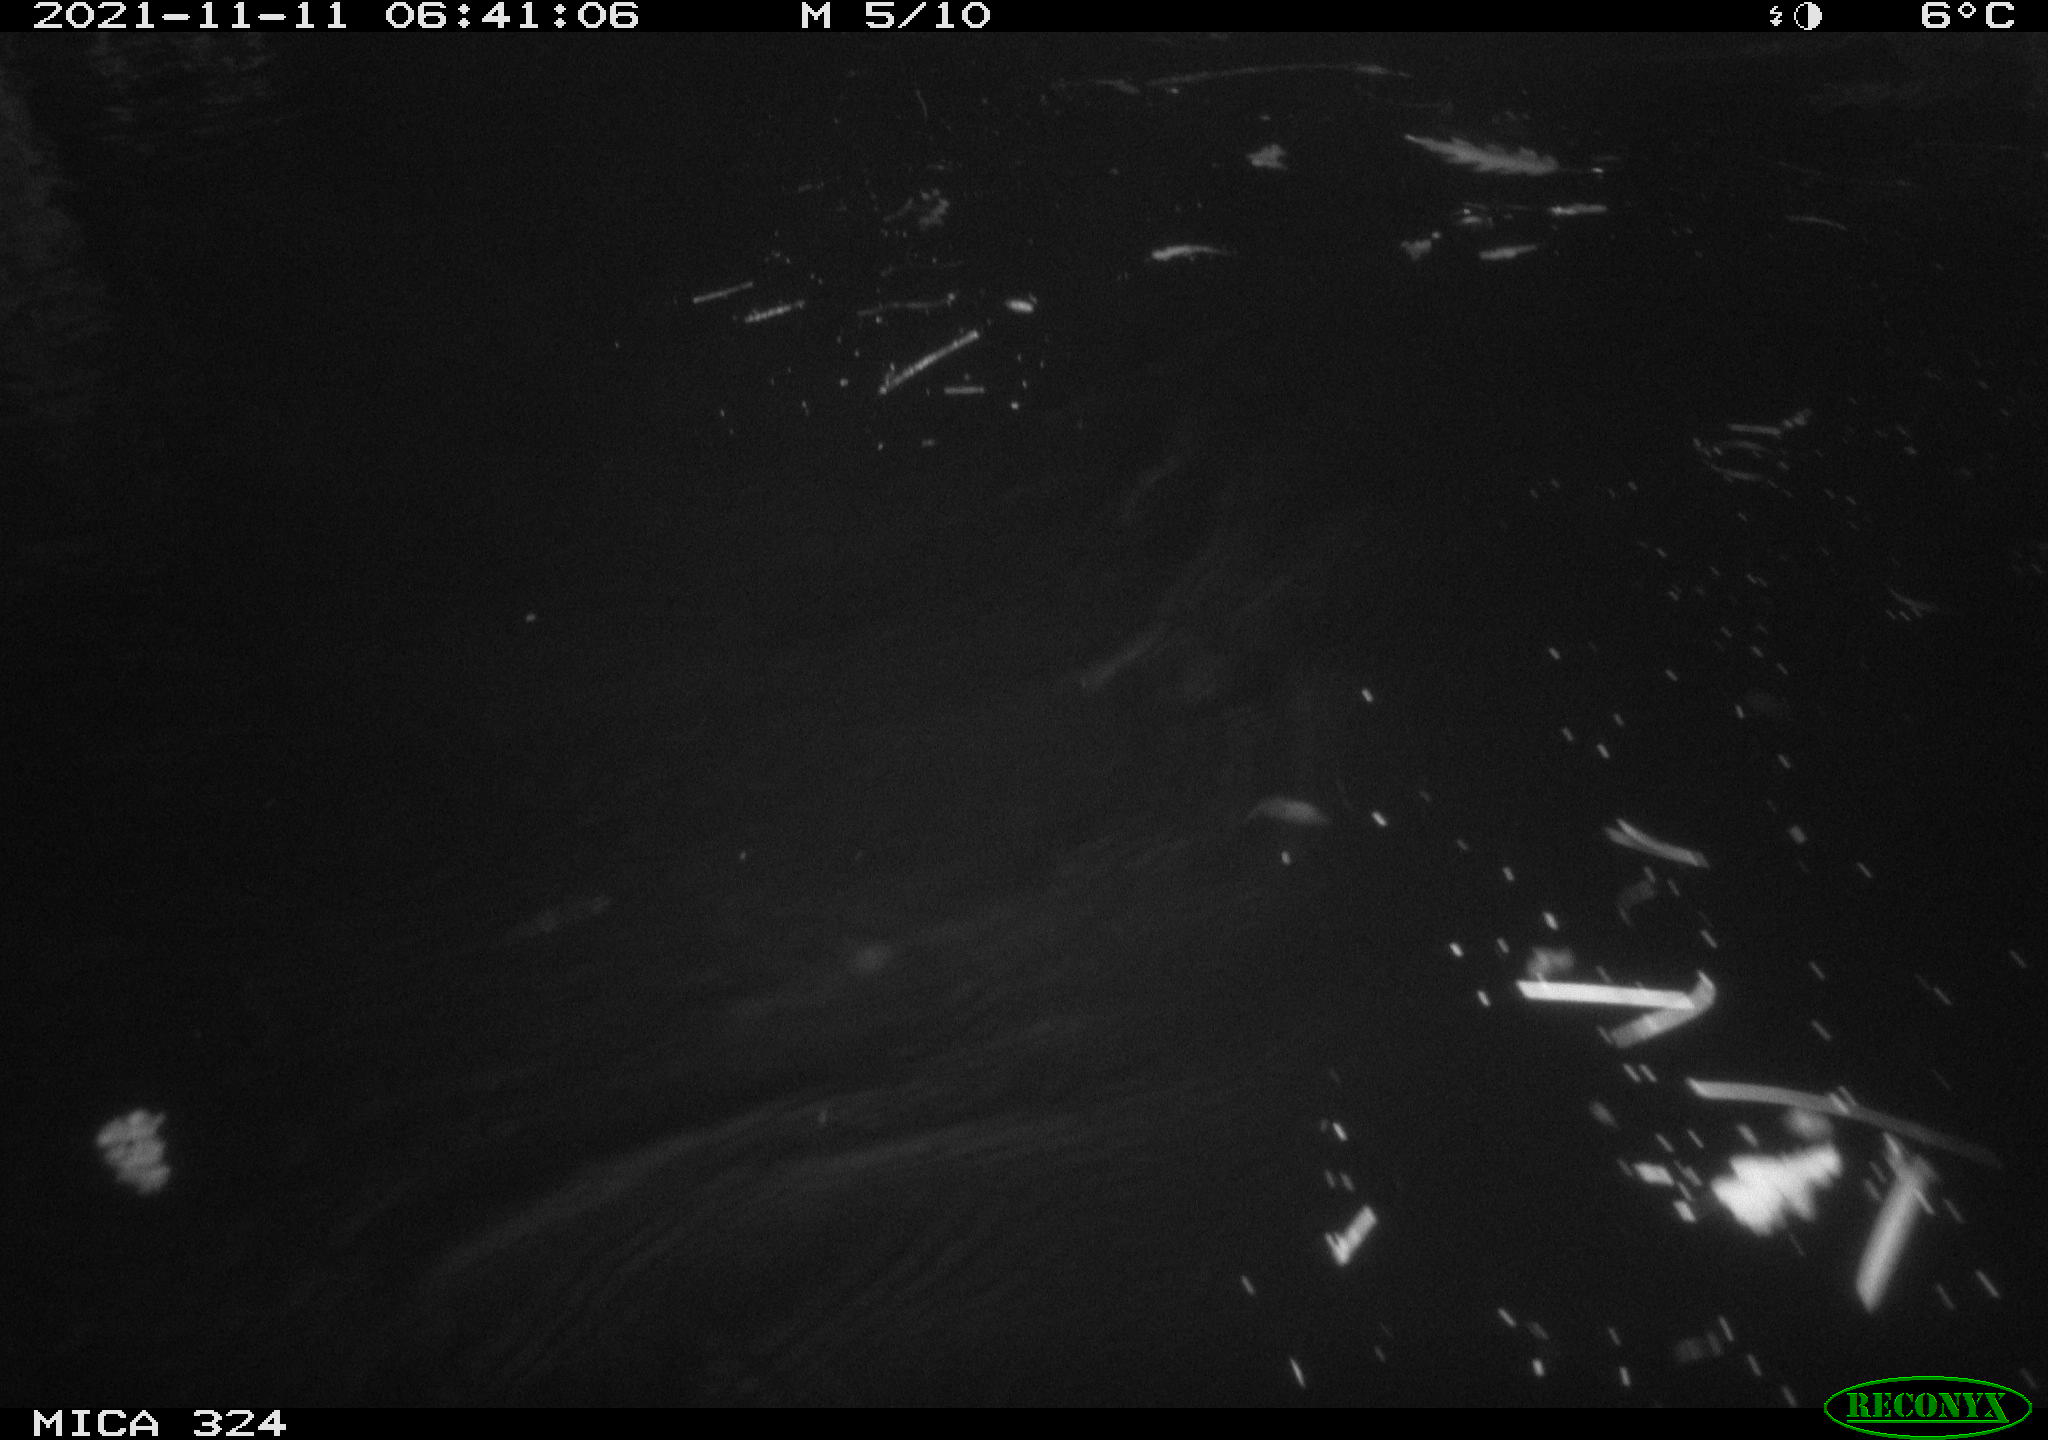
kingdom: Animalia
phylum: Chordata
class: Mammalia
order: Rodentia
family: Cricetidae
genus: Ondatra
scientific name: Ondatra zibethicus
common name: Muskrat
